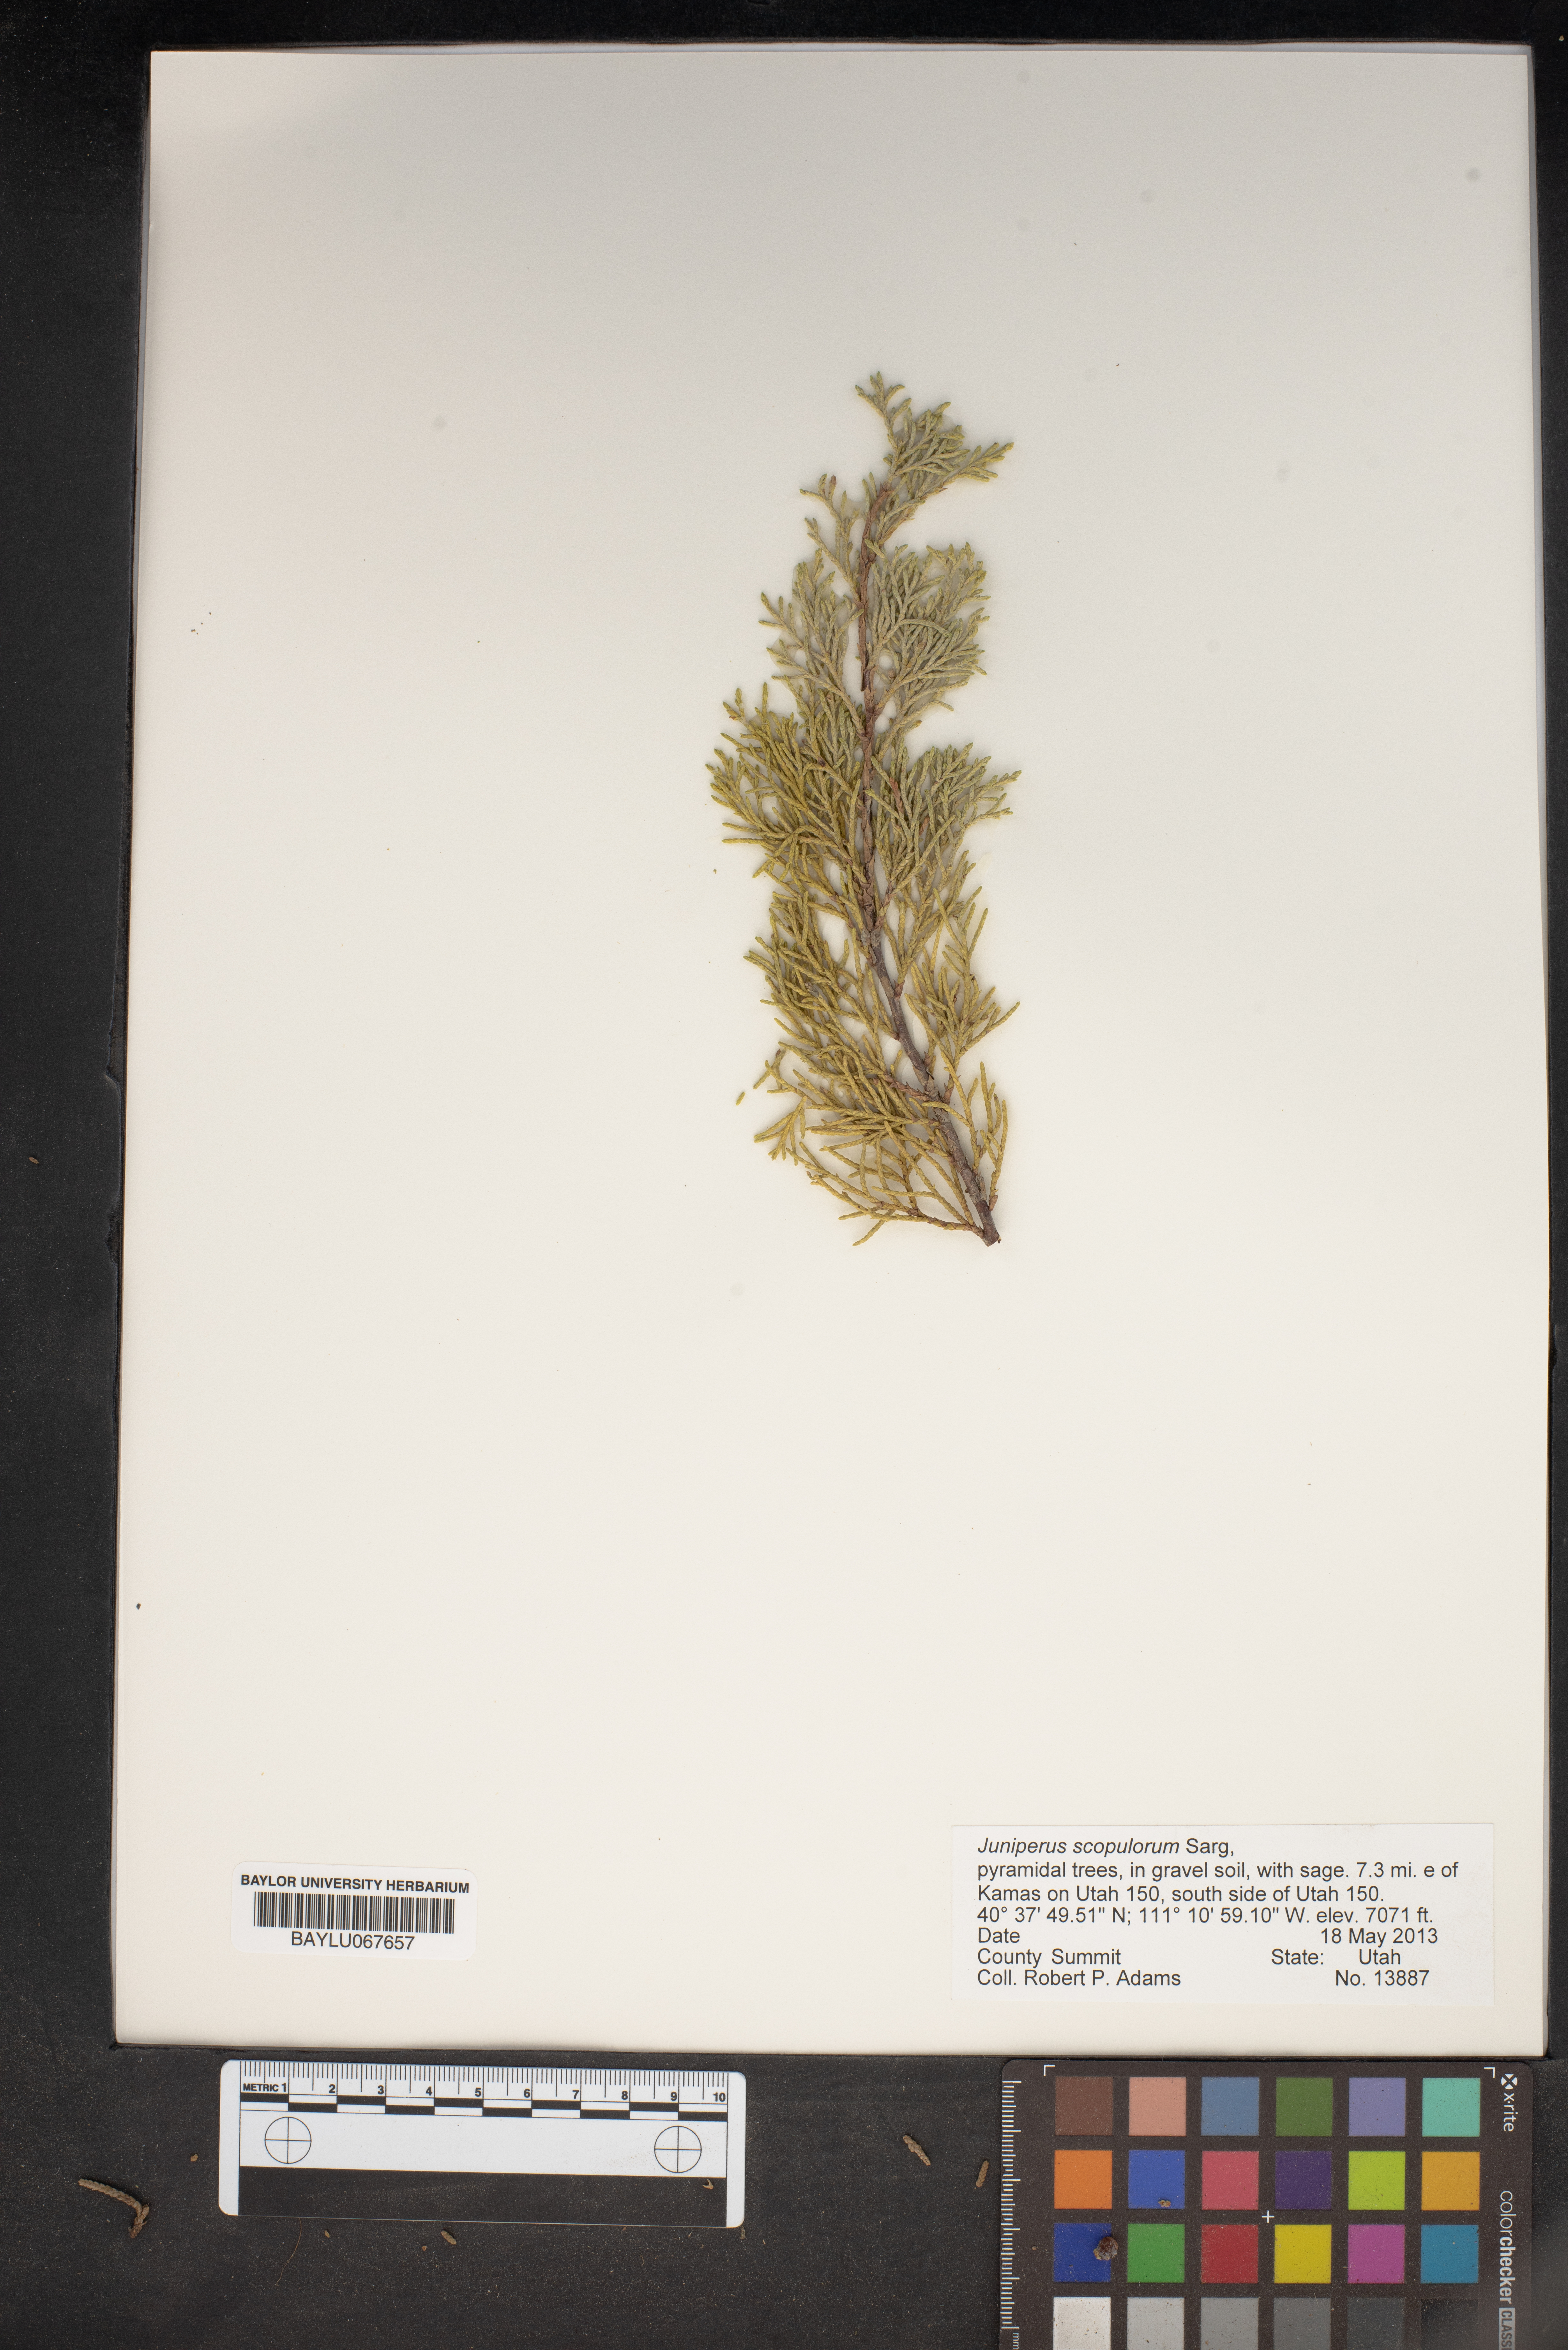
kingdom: Plantae
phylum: Tracheophyta
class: Pinopsida
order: Pinales
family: Cupressaceae
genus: Juniperus
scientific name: Juniperus scopulorum
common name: Rocky mountain juniper
